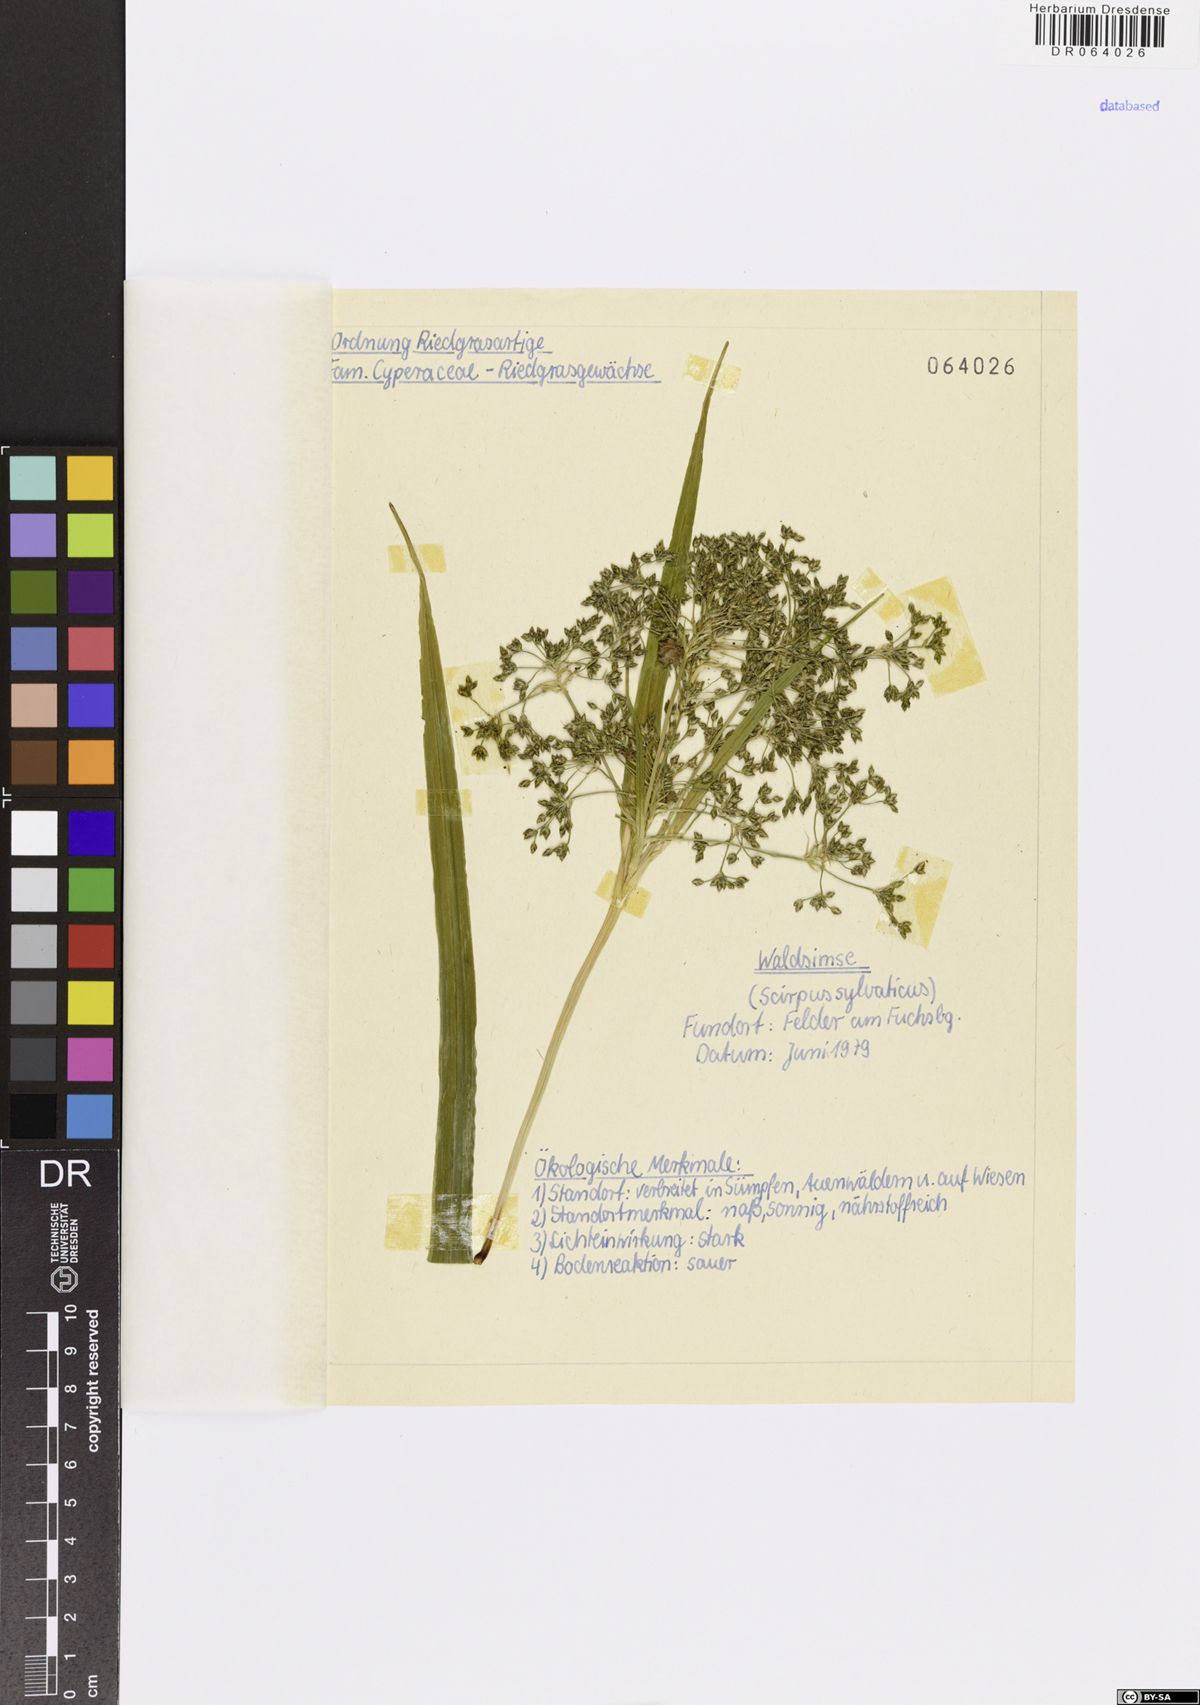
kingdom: Plantae
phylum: Tracheophyta
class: Liliopsida
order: Poales
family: Cyperaceae
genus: Scirpus
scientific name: Scirpus sylvaticus
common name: Wood club-rush
